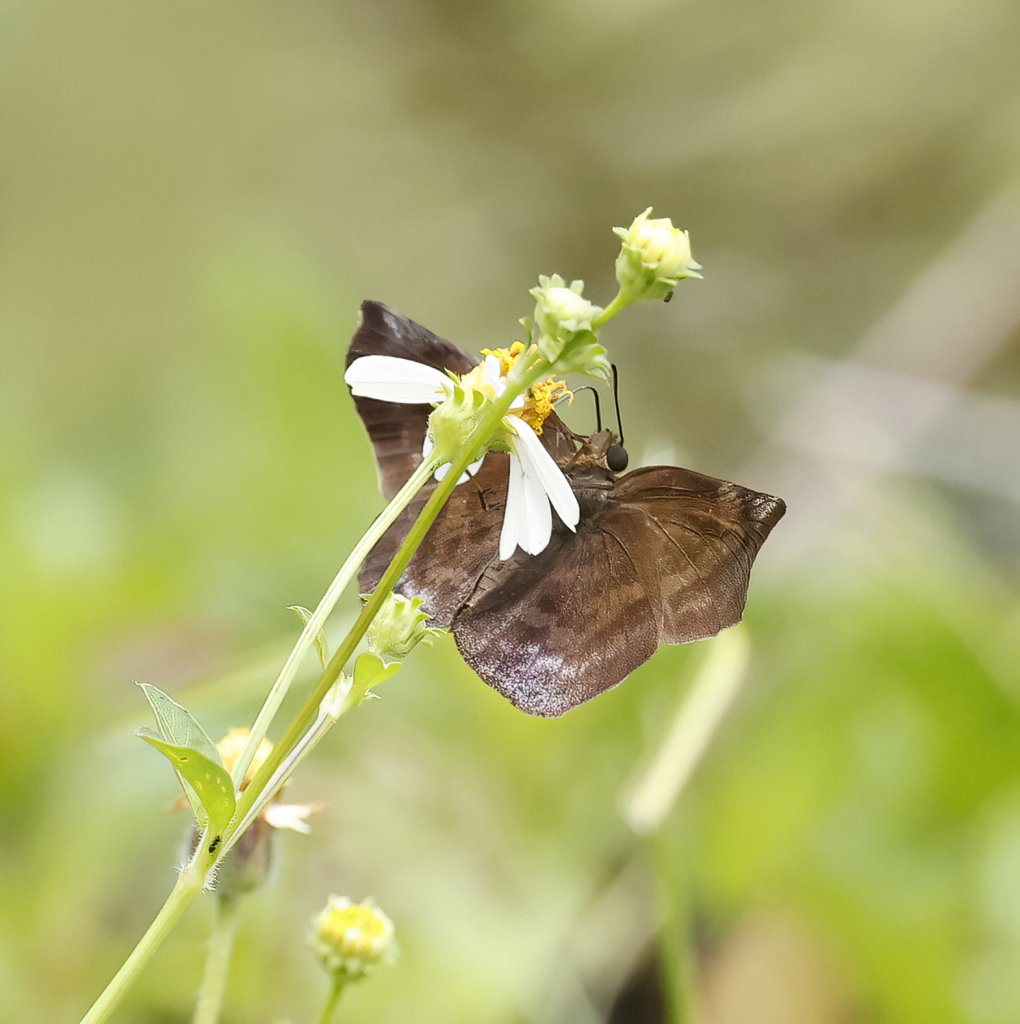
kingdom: Animalia
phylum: Arthropoda
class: Insecta
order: Lepidoptera
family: Hesperiidae
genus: Achlyodes
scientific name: Achlyodes
